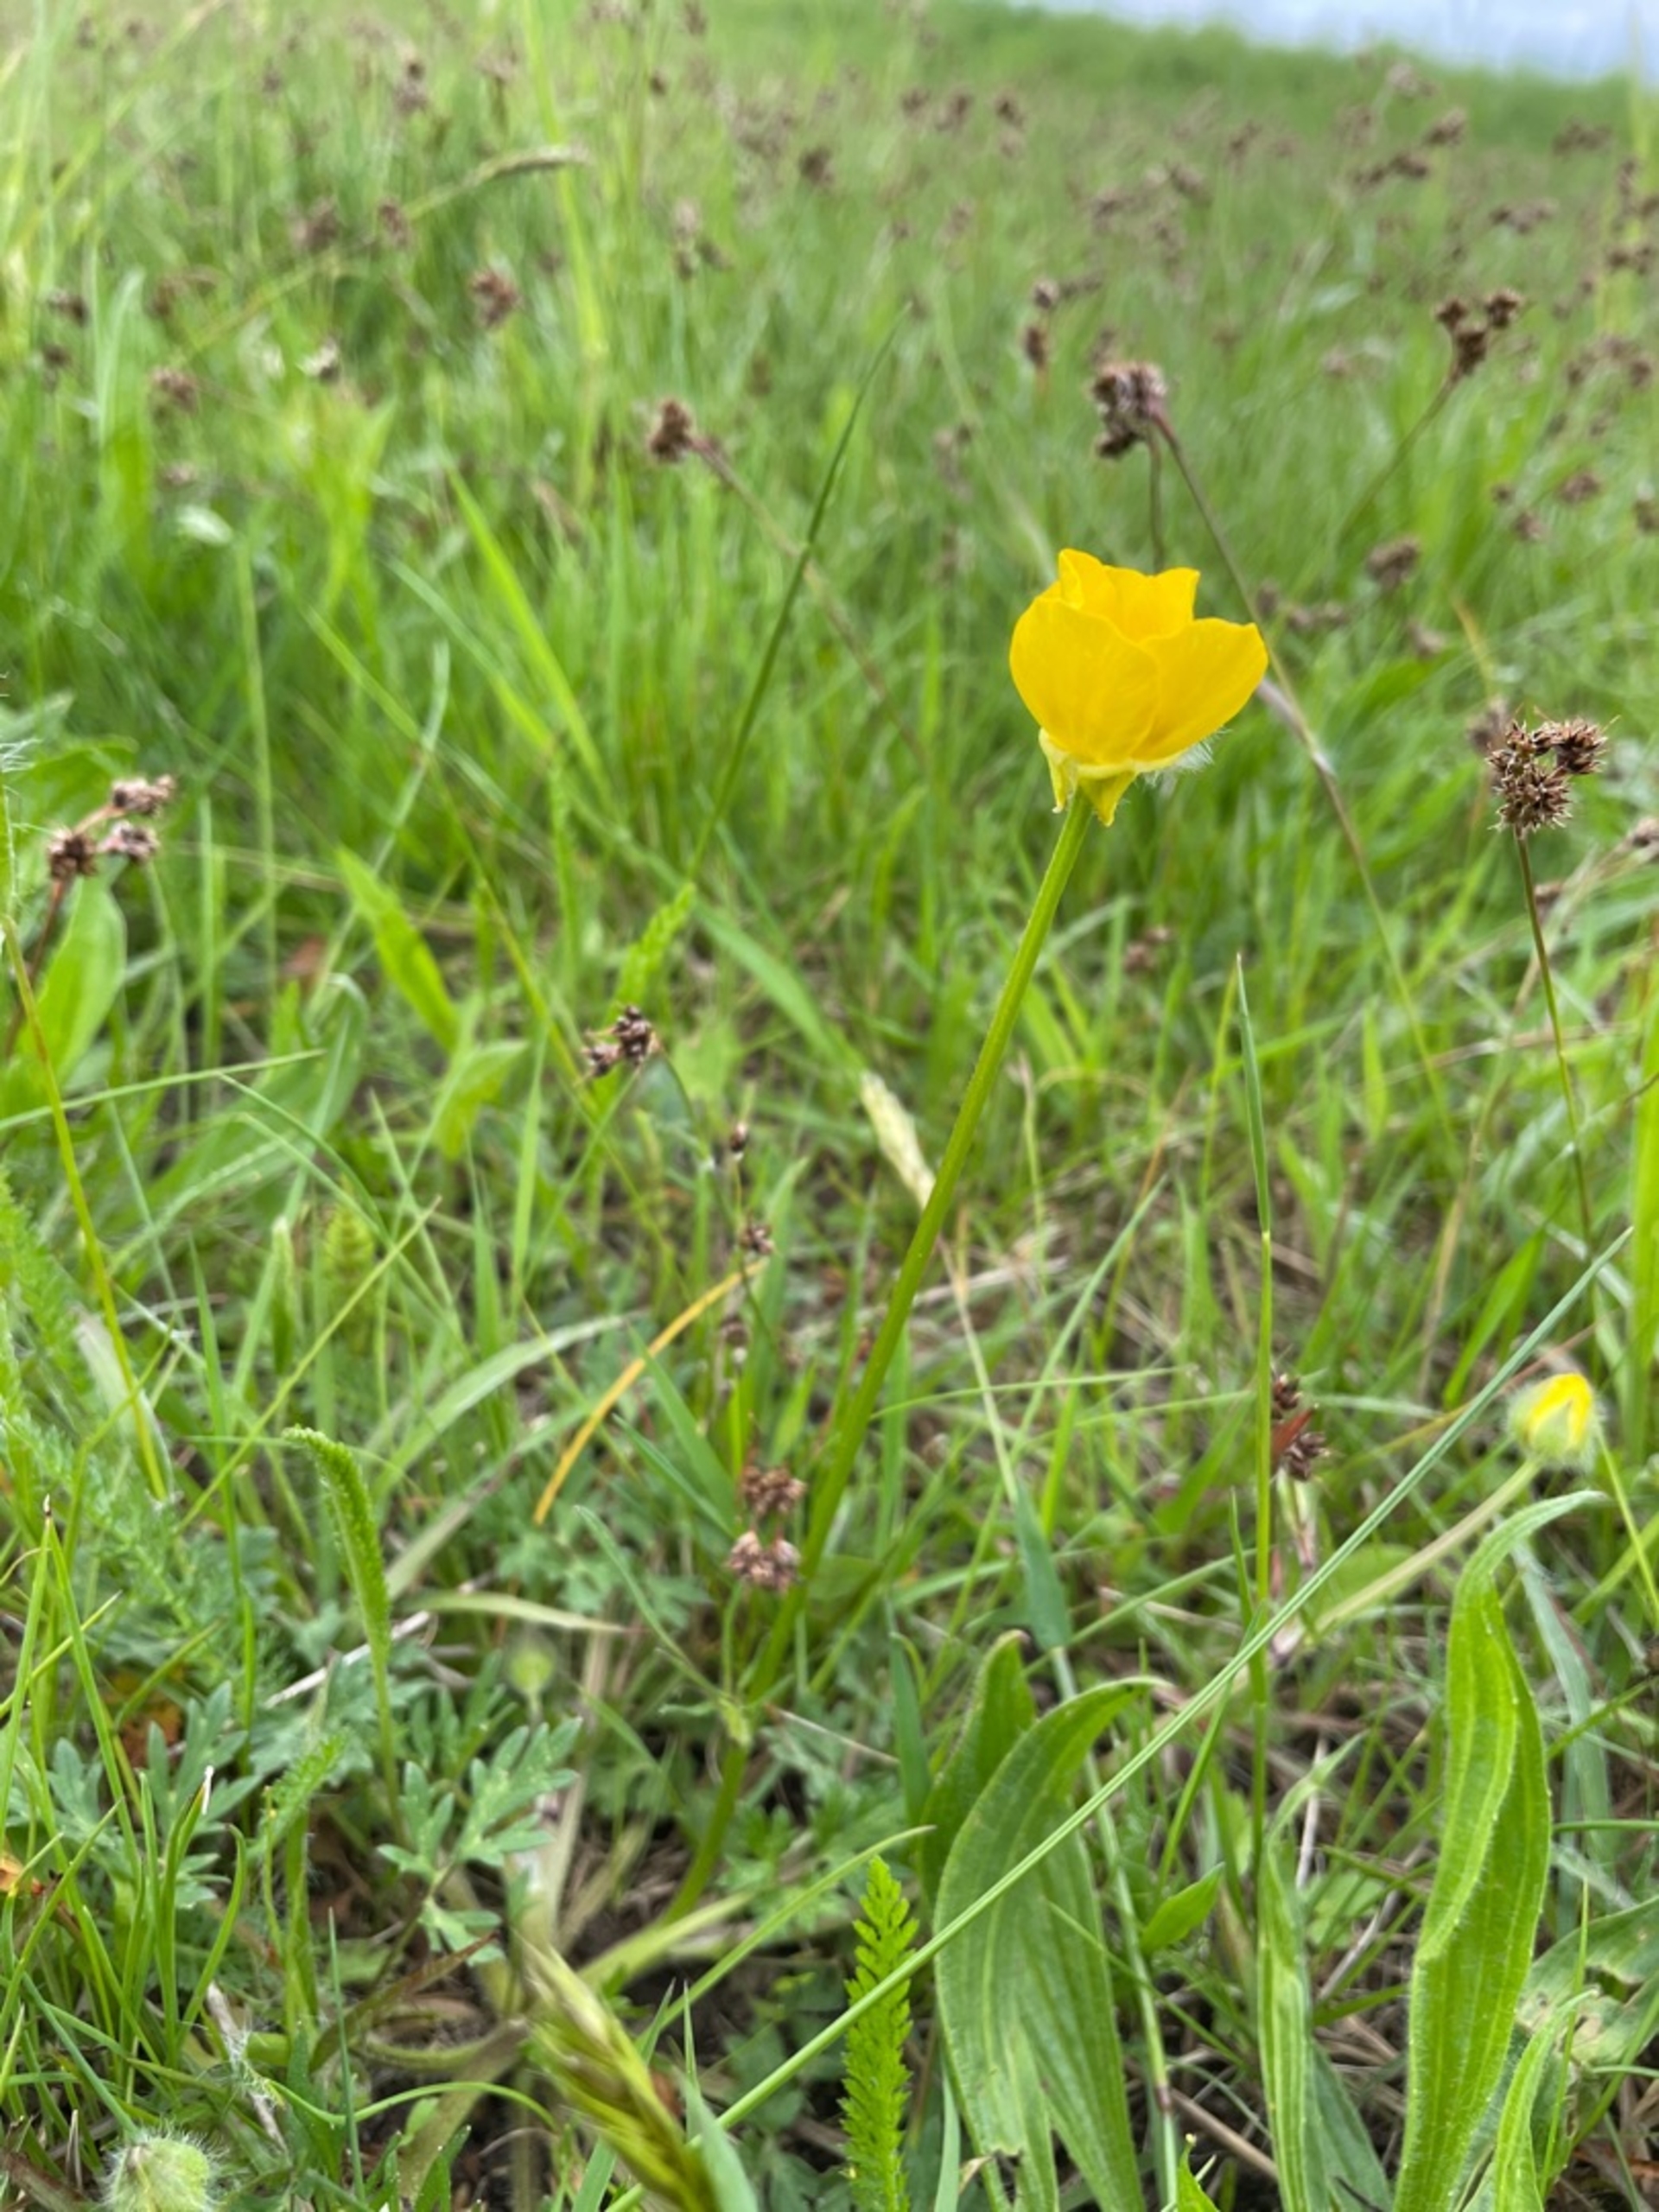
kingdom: Plantae
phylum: Tracheophyta
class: Magnoliopsida
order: Ranunculales
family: Ranunculaceae
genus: Ranunculus
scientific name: Ranunculus bulbosus
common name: Knold-ranunkel
